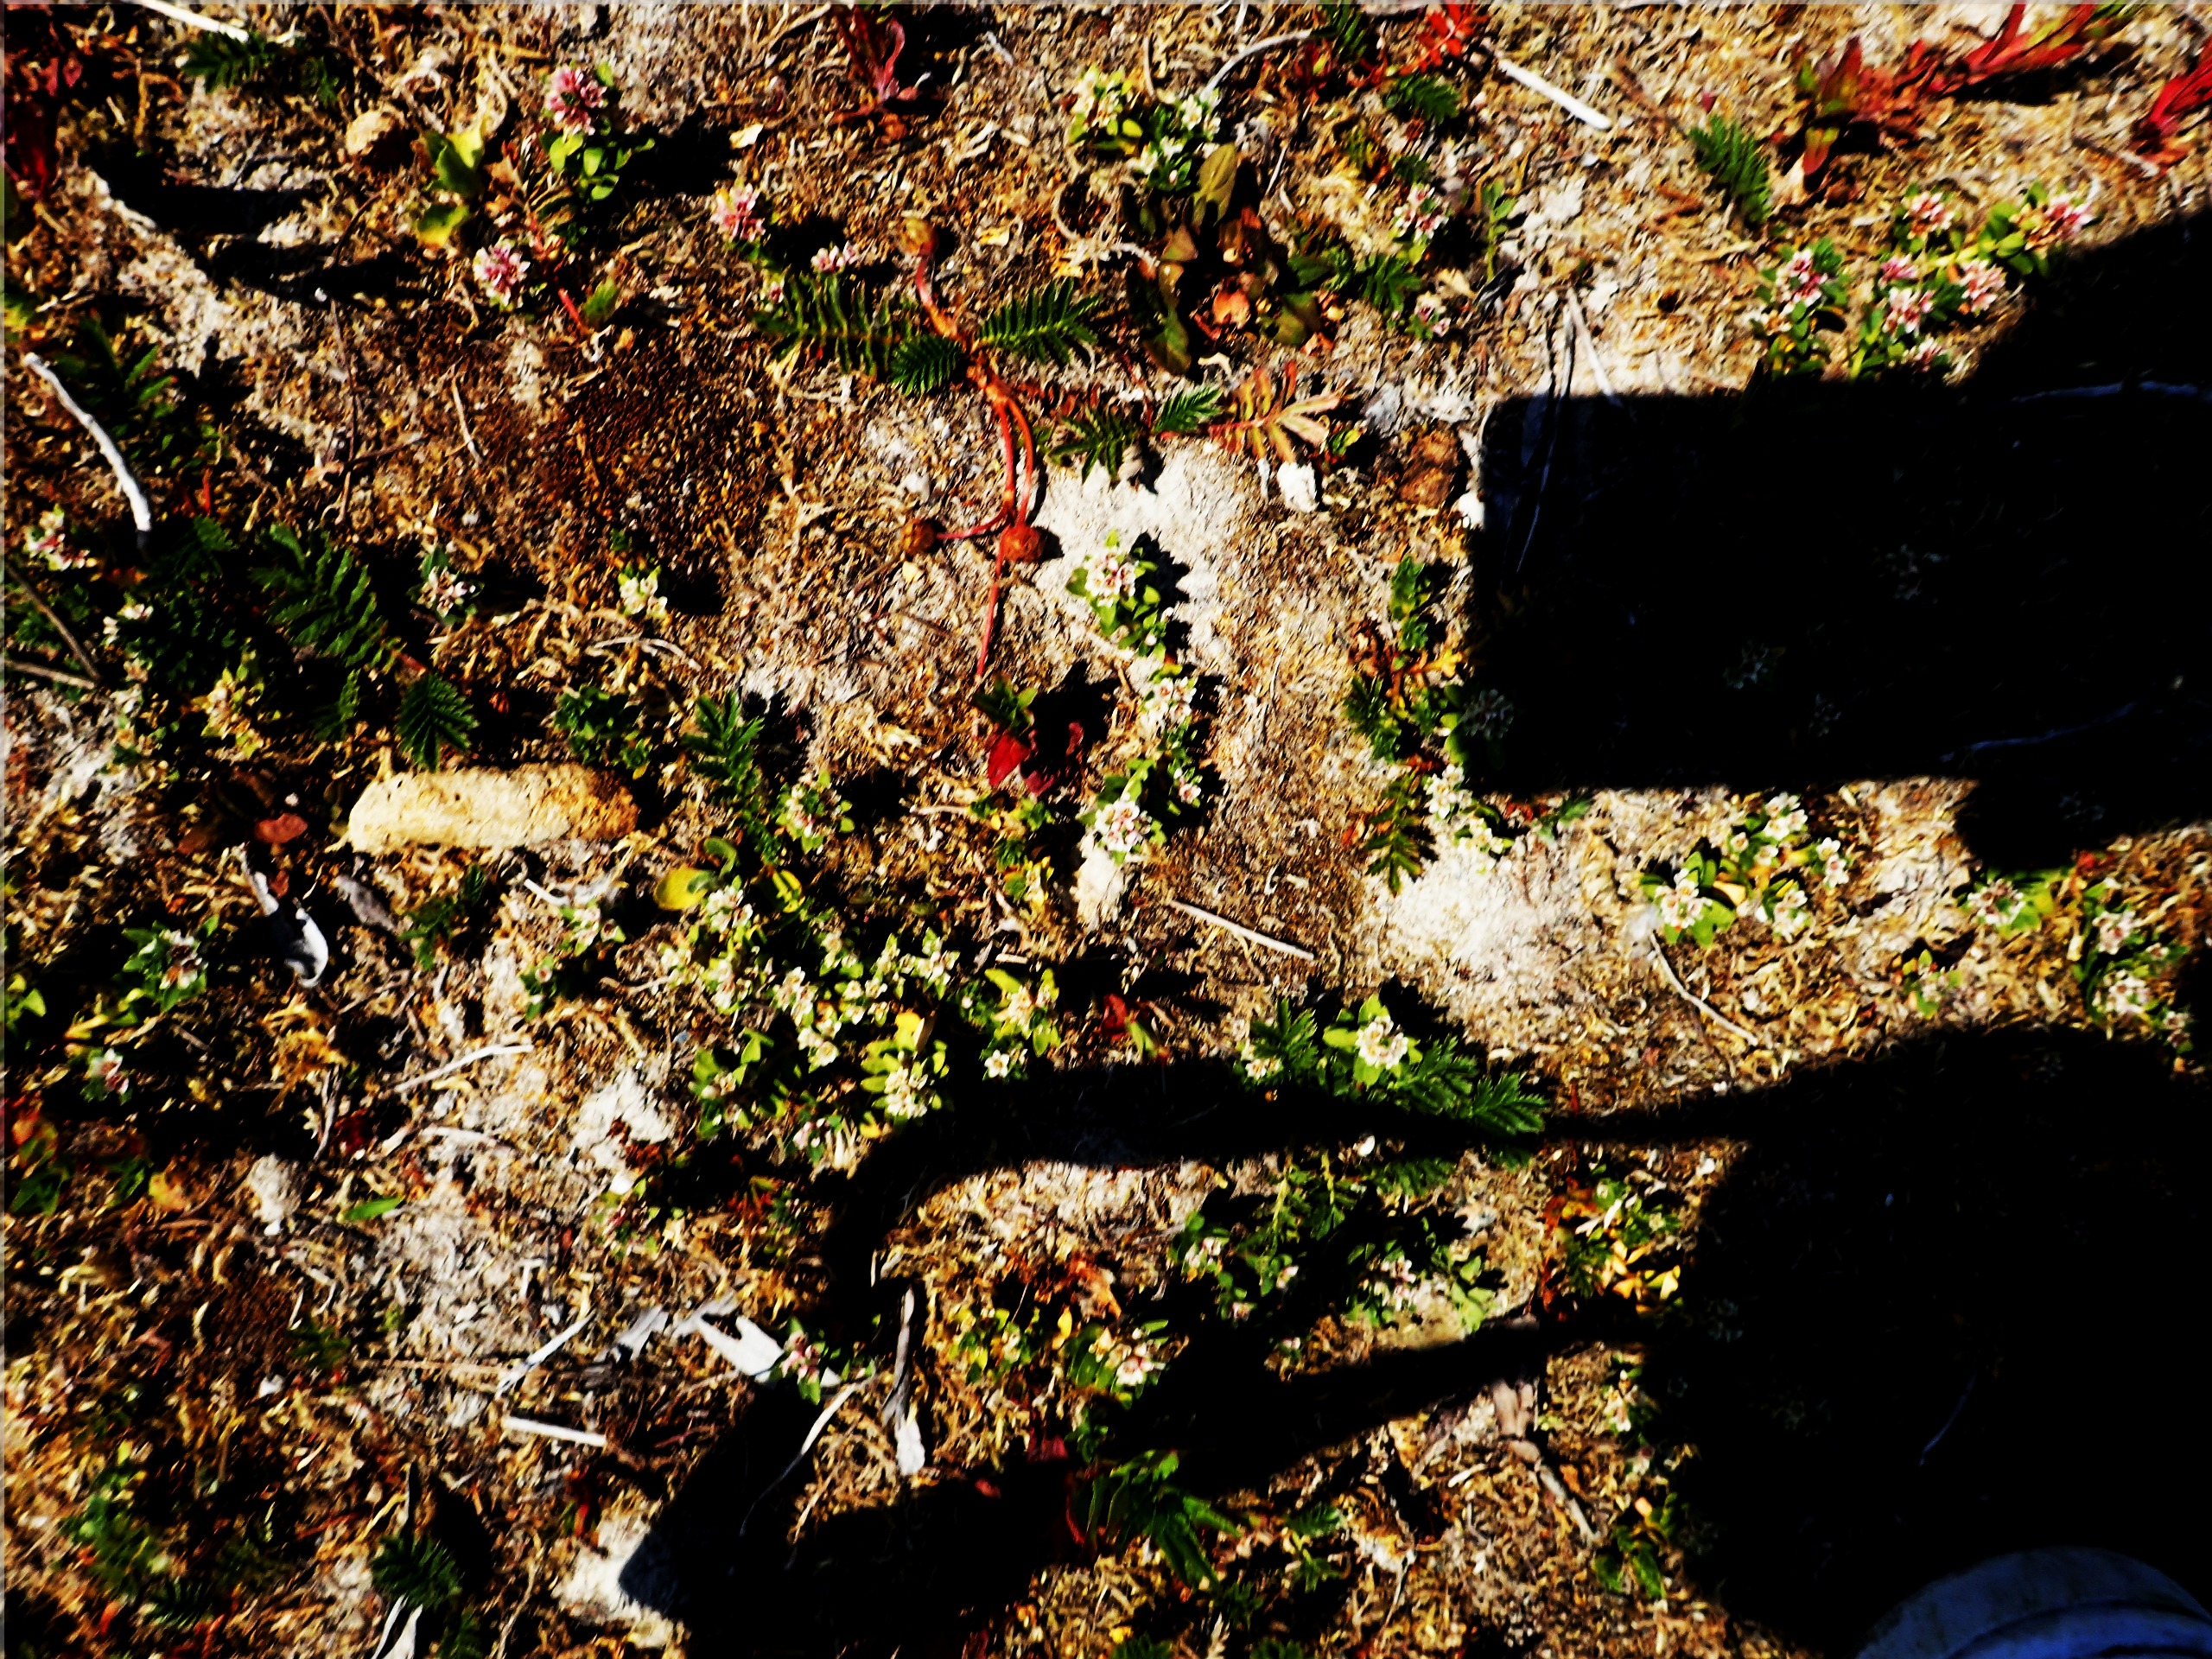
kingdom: Plantae
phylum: Tracheophyta
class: Magnoliopsida
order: Ericales
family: Primulaceae
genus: Lysimachia
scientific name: Lysimachia maritima
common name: Sandkryb
